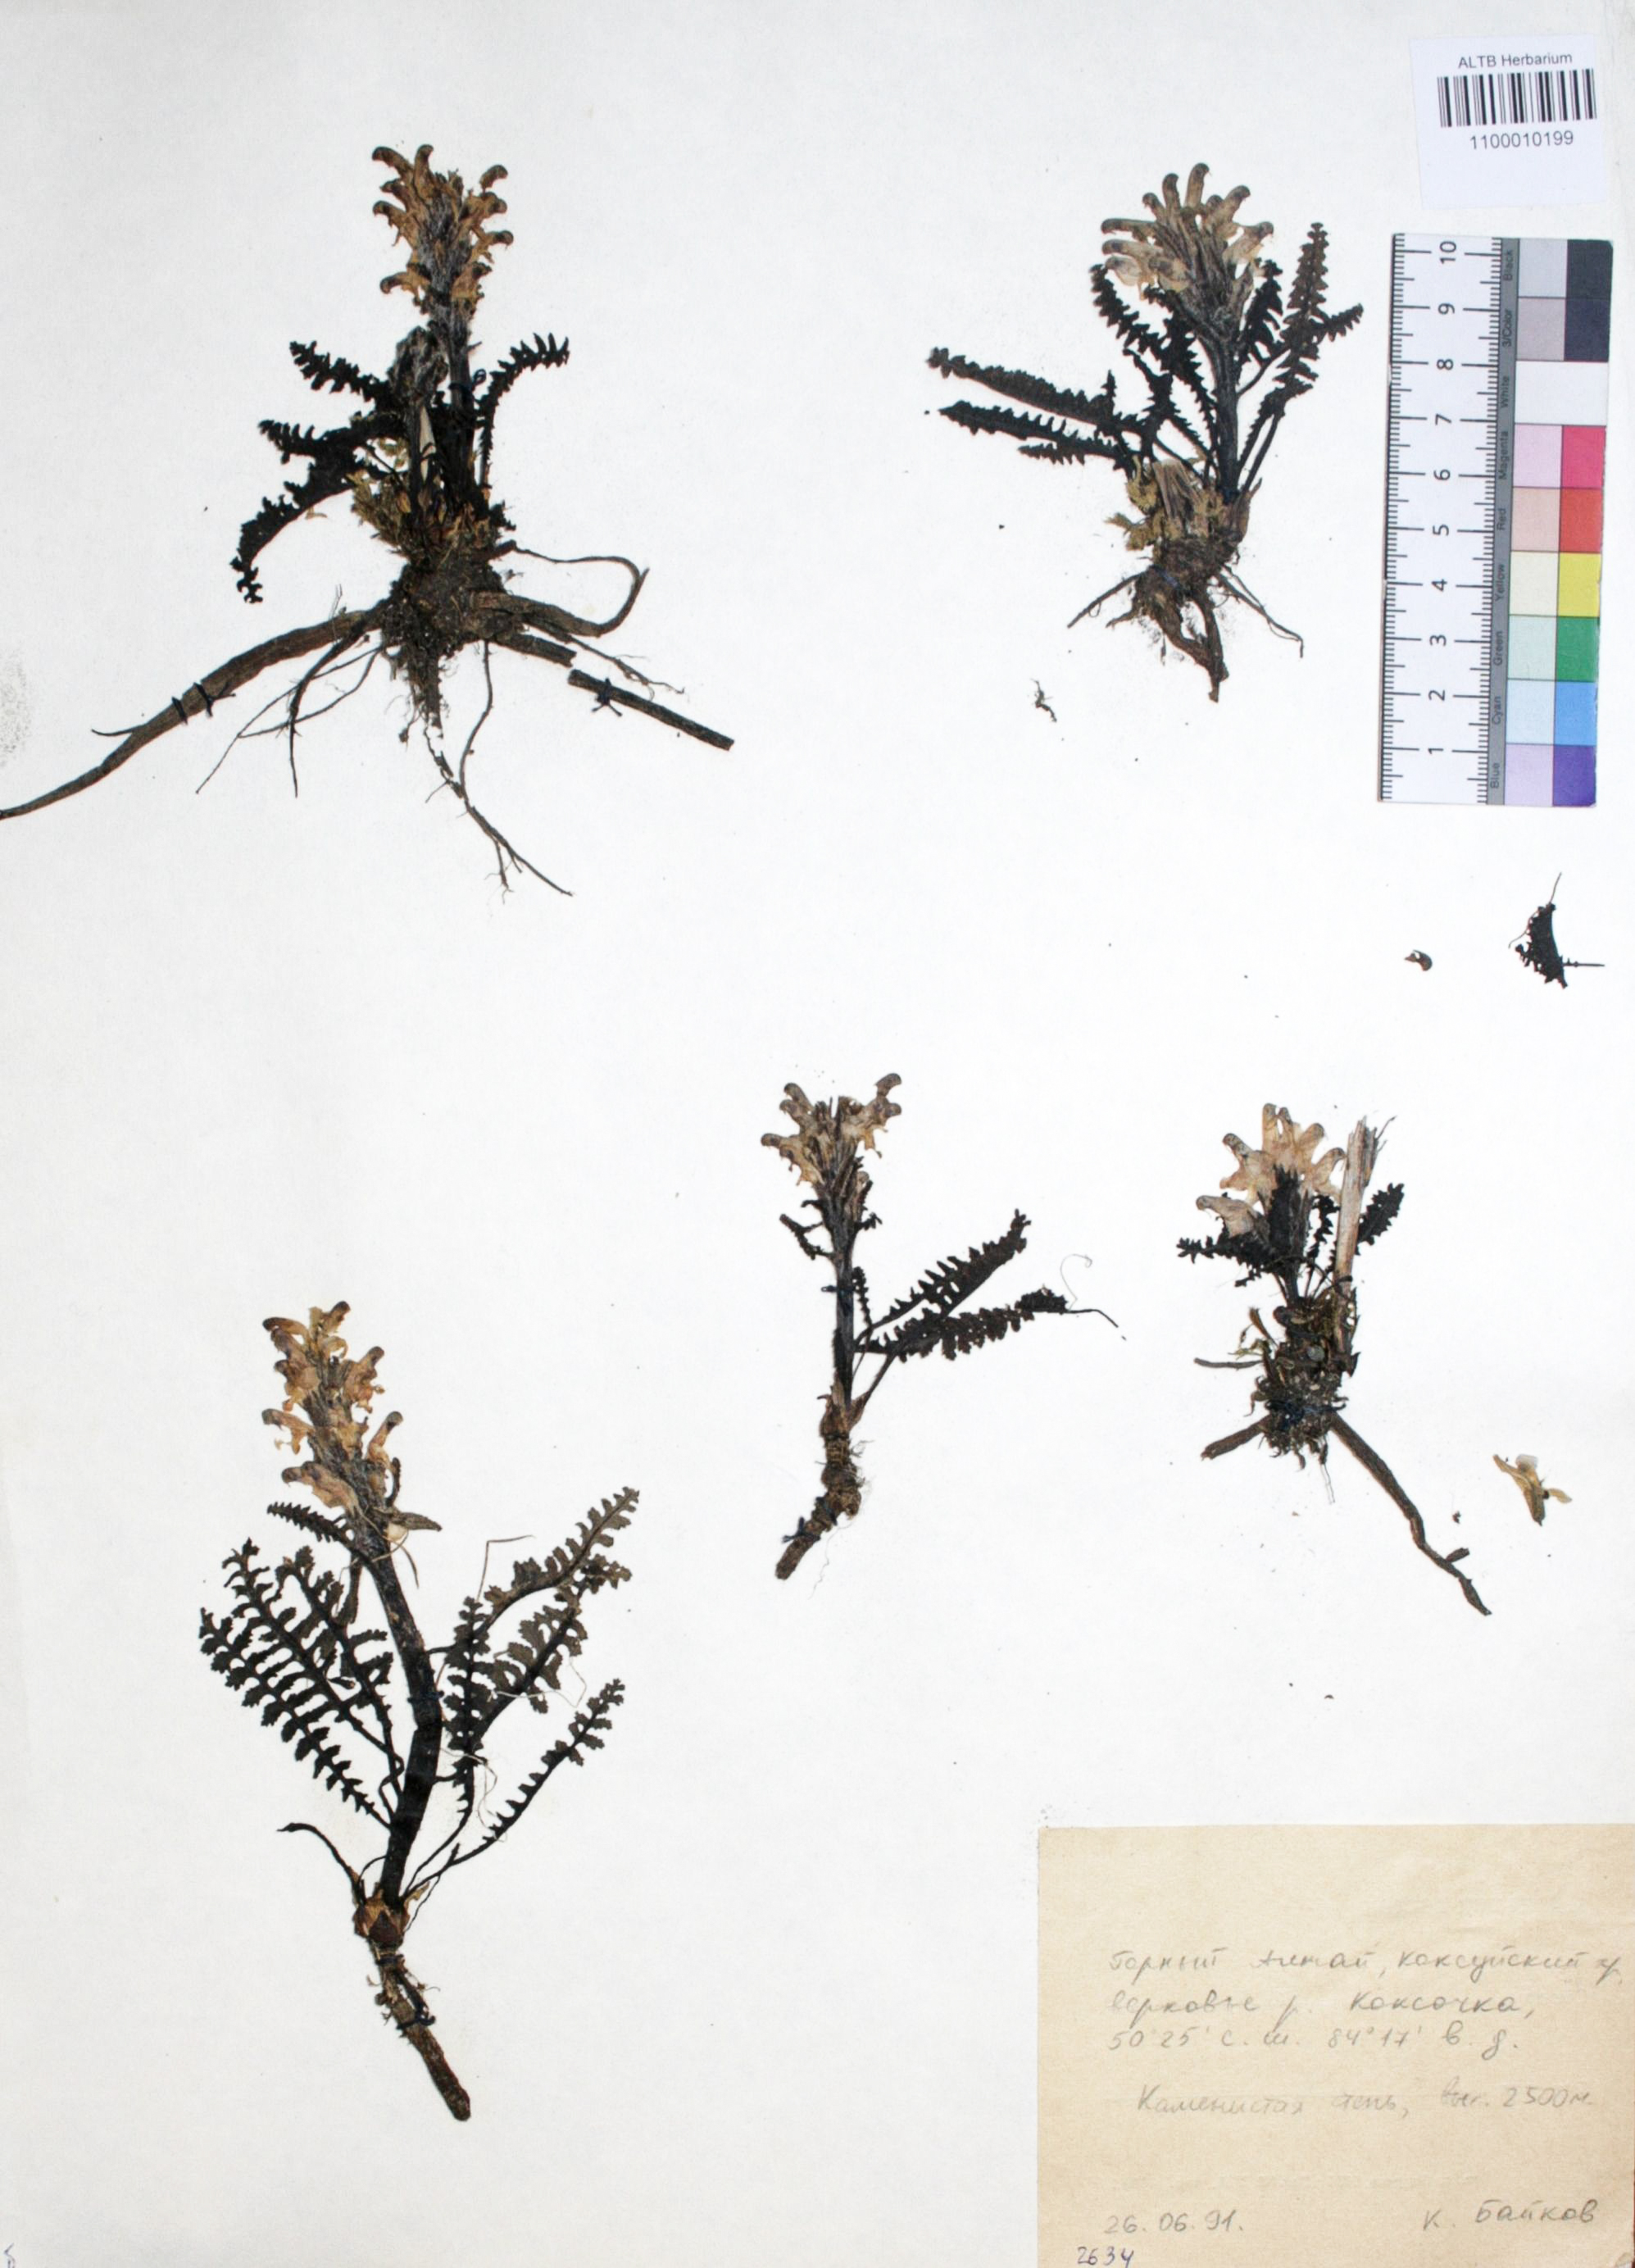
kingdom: Plantae
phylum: Tracheophyta
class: Magnoliopsida
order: Lamiales
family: Orobanchaceae
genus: Pedicularis
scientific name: Pedicularis uliginosa
